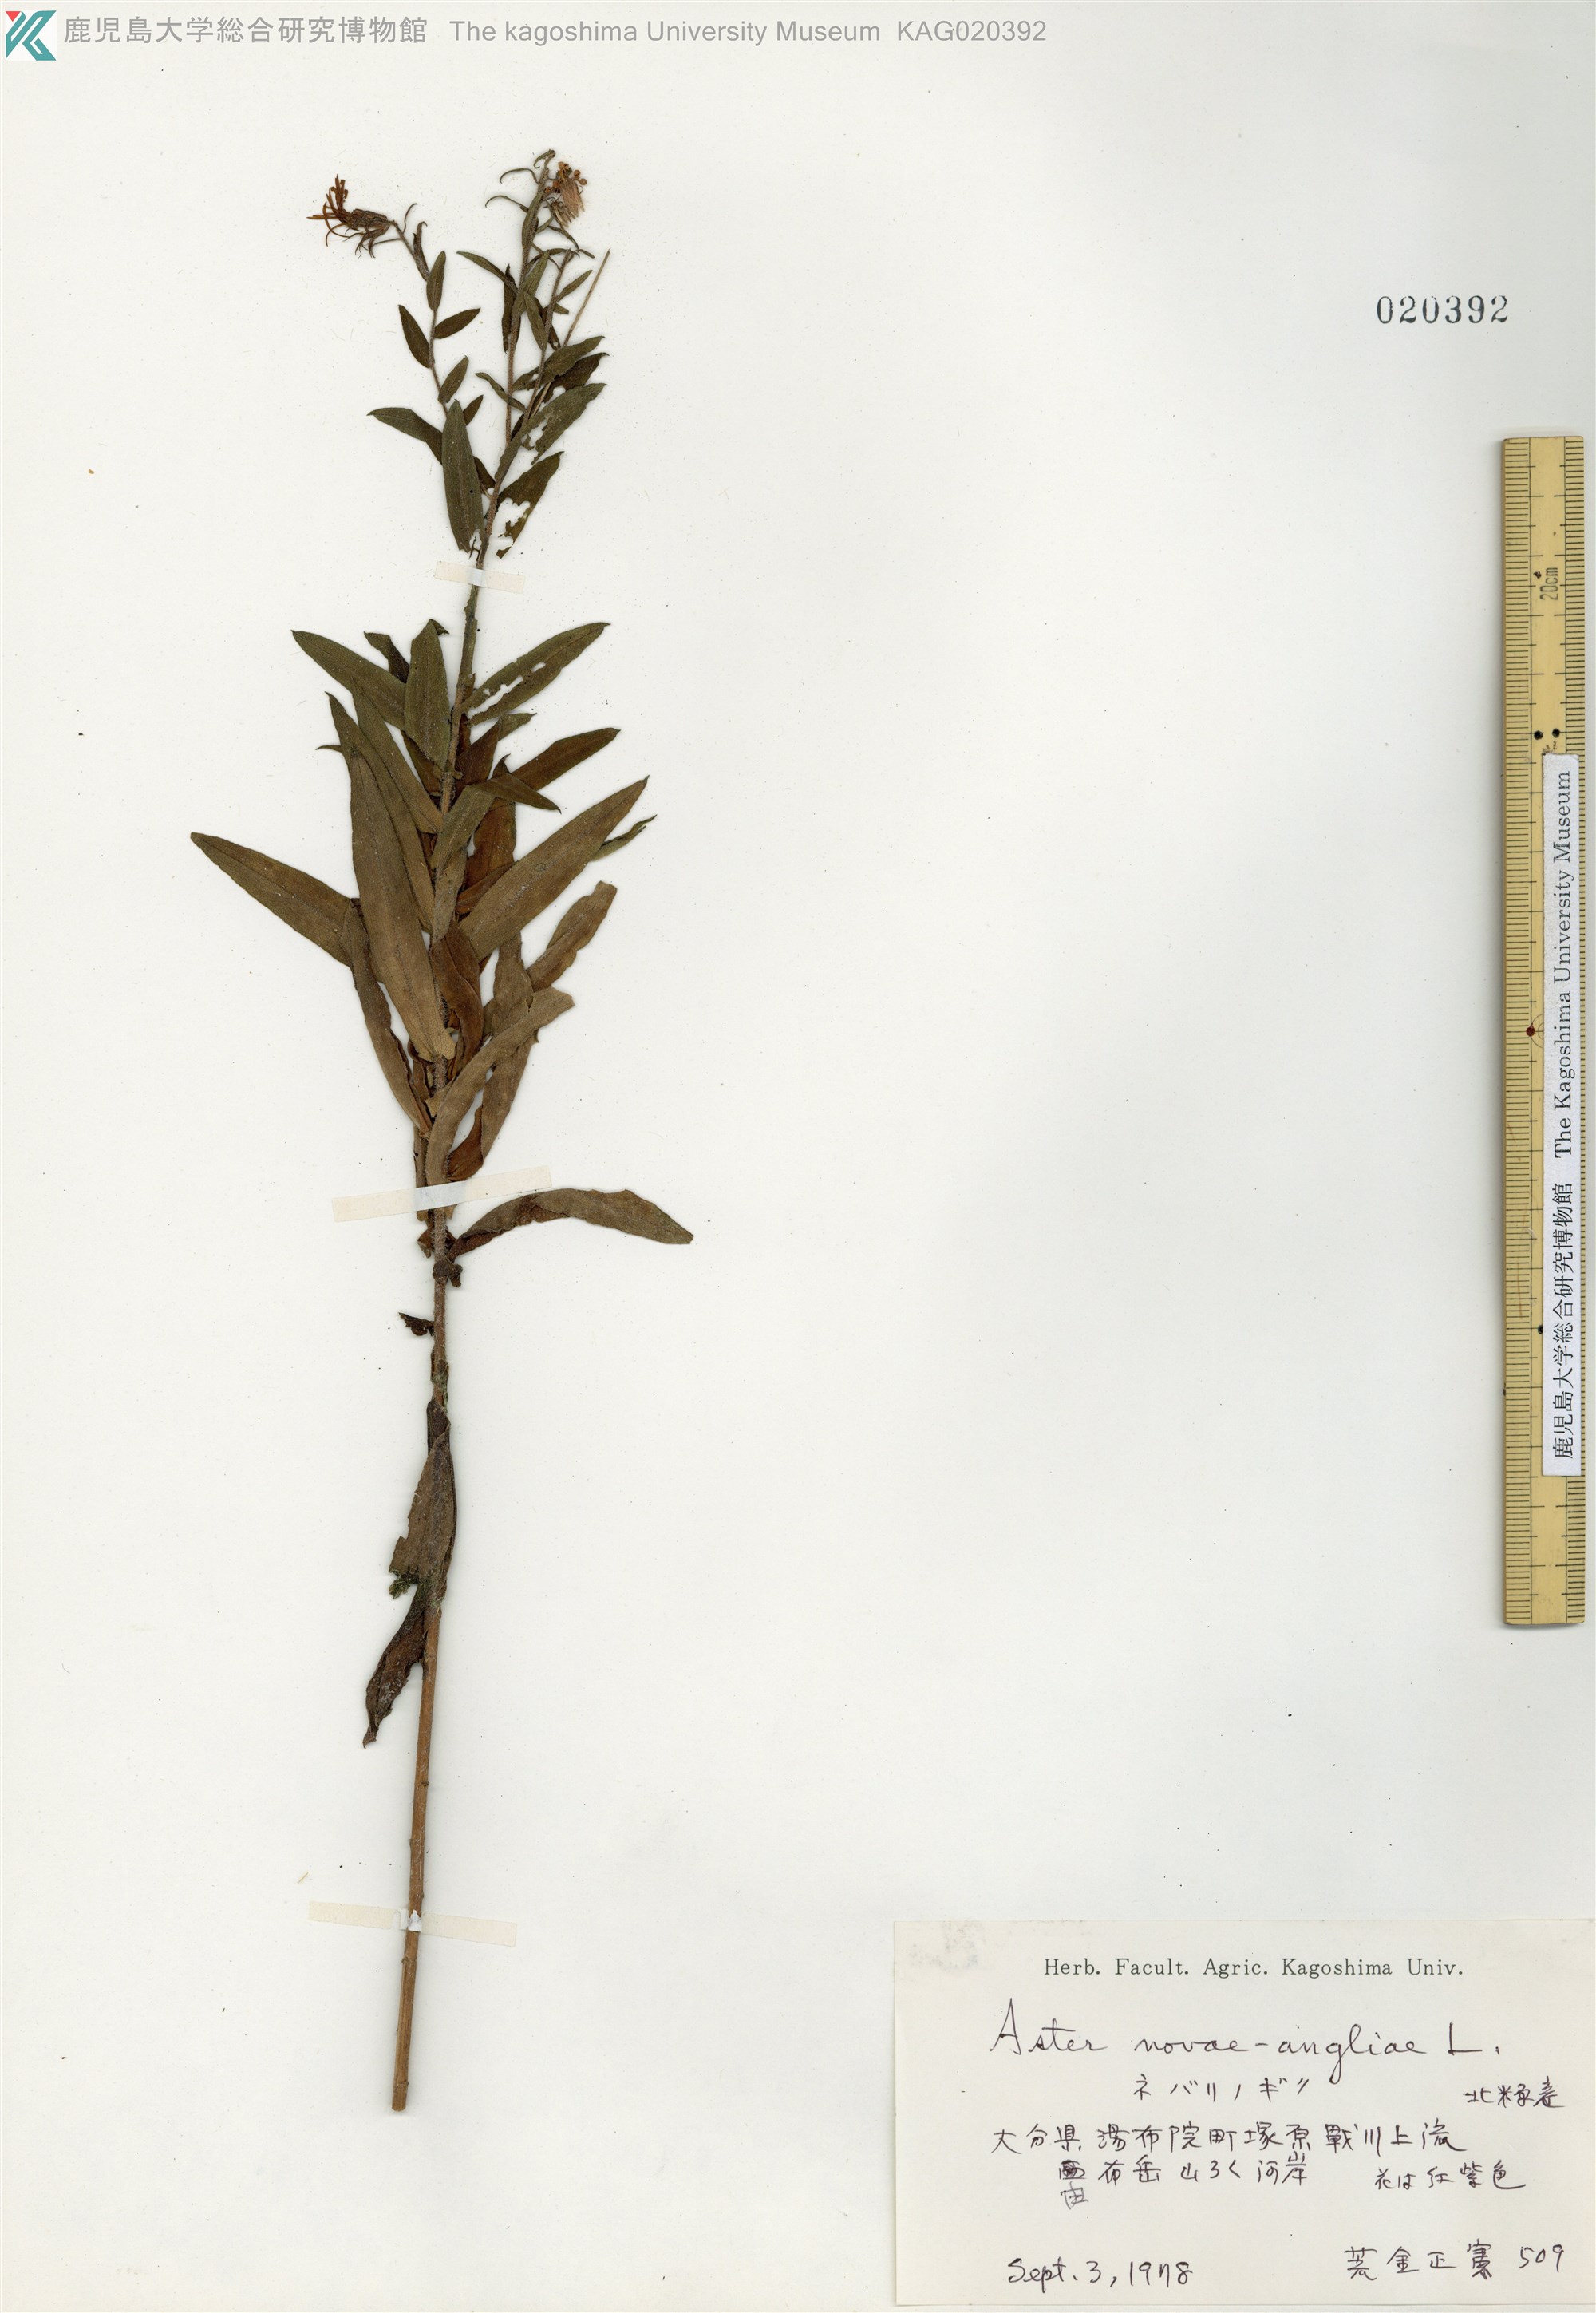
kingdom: Plantae
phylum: Tracheophyta
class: Magnoliopsida
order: Asterales
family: Asteraceae
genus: Symphyotrichum
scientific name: Symphyotrichum novae-angliae
